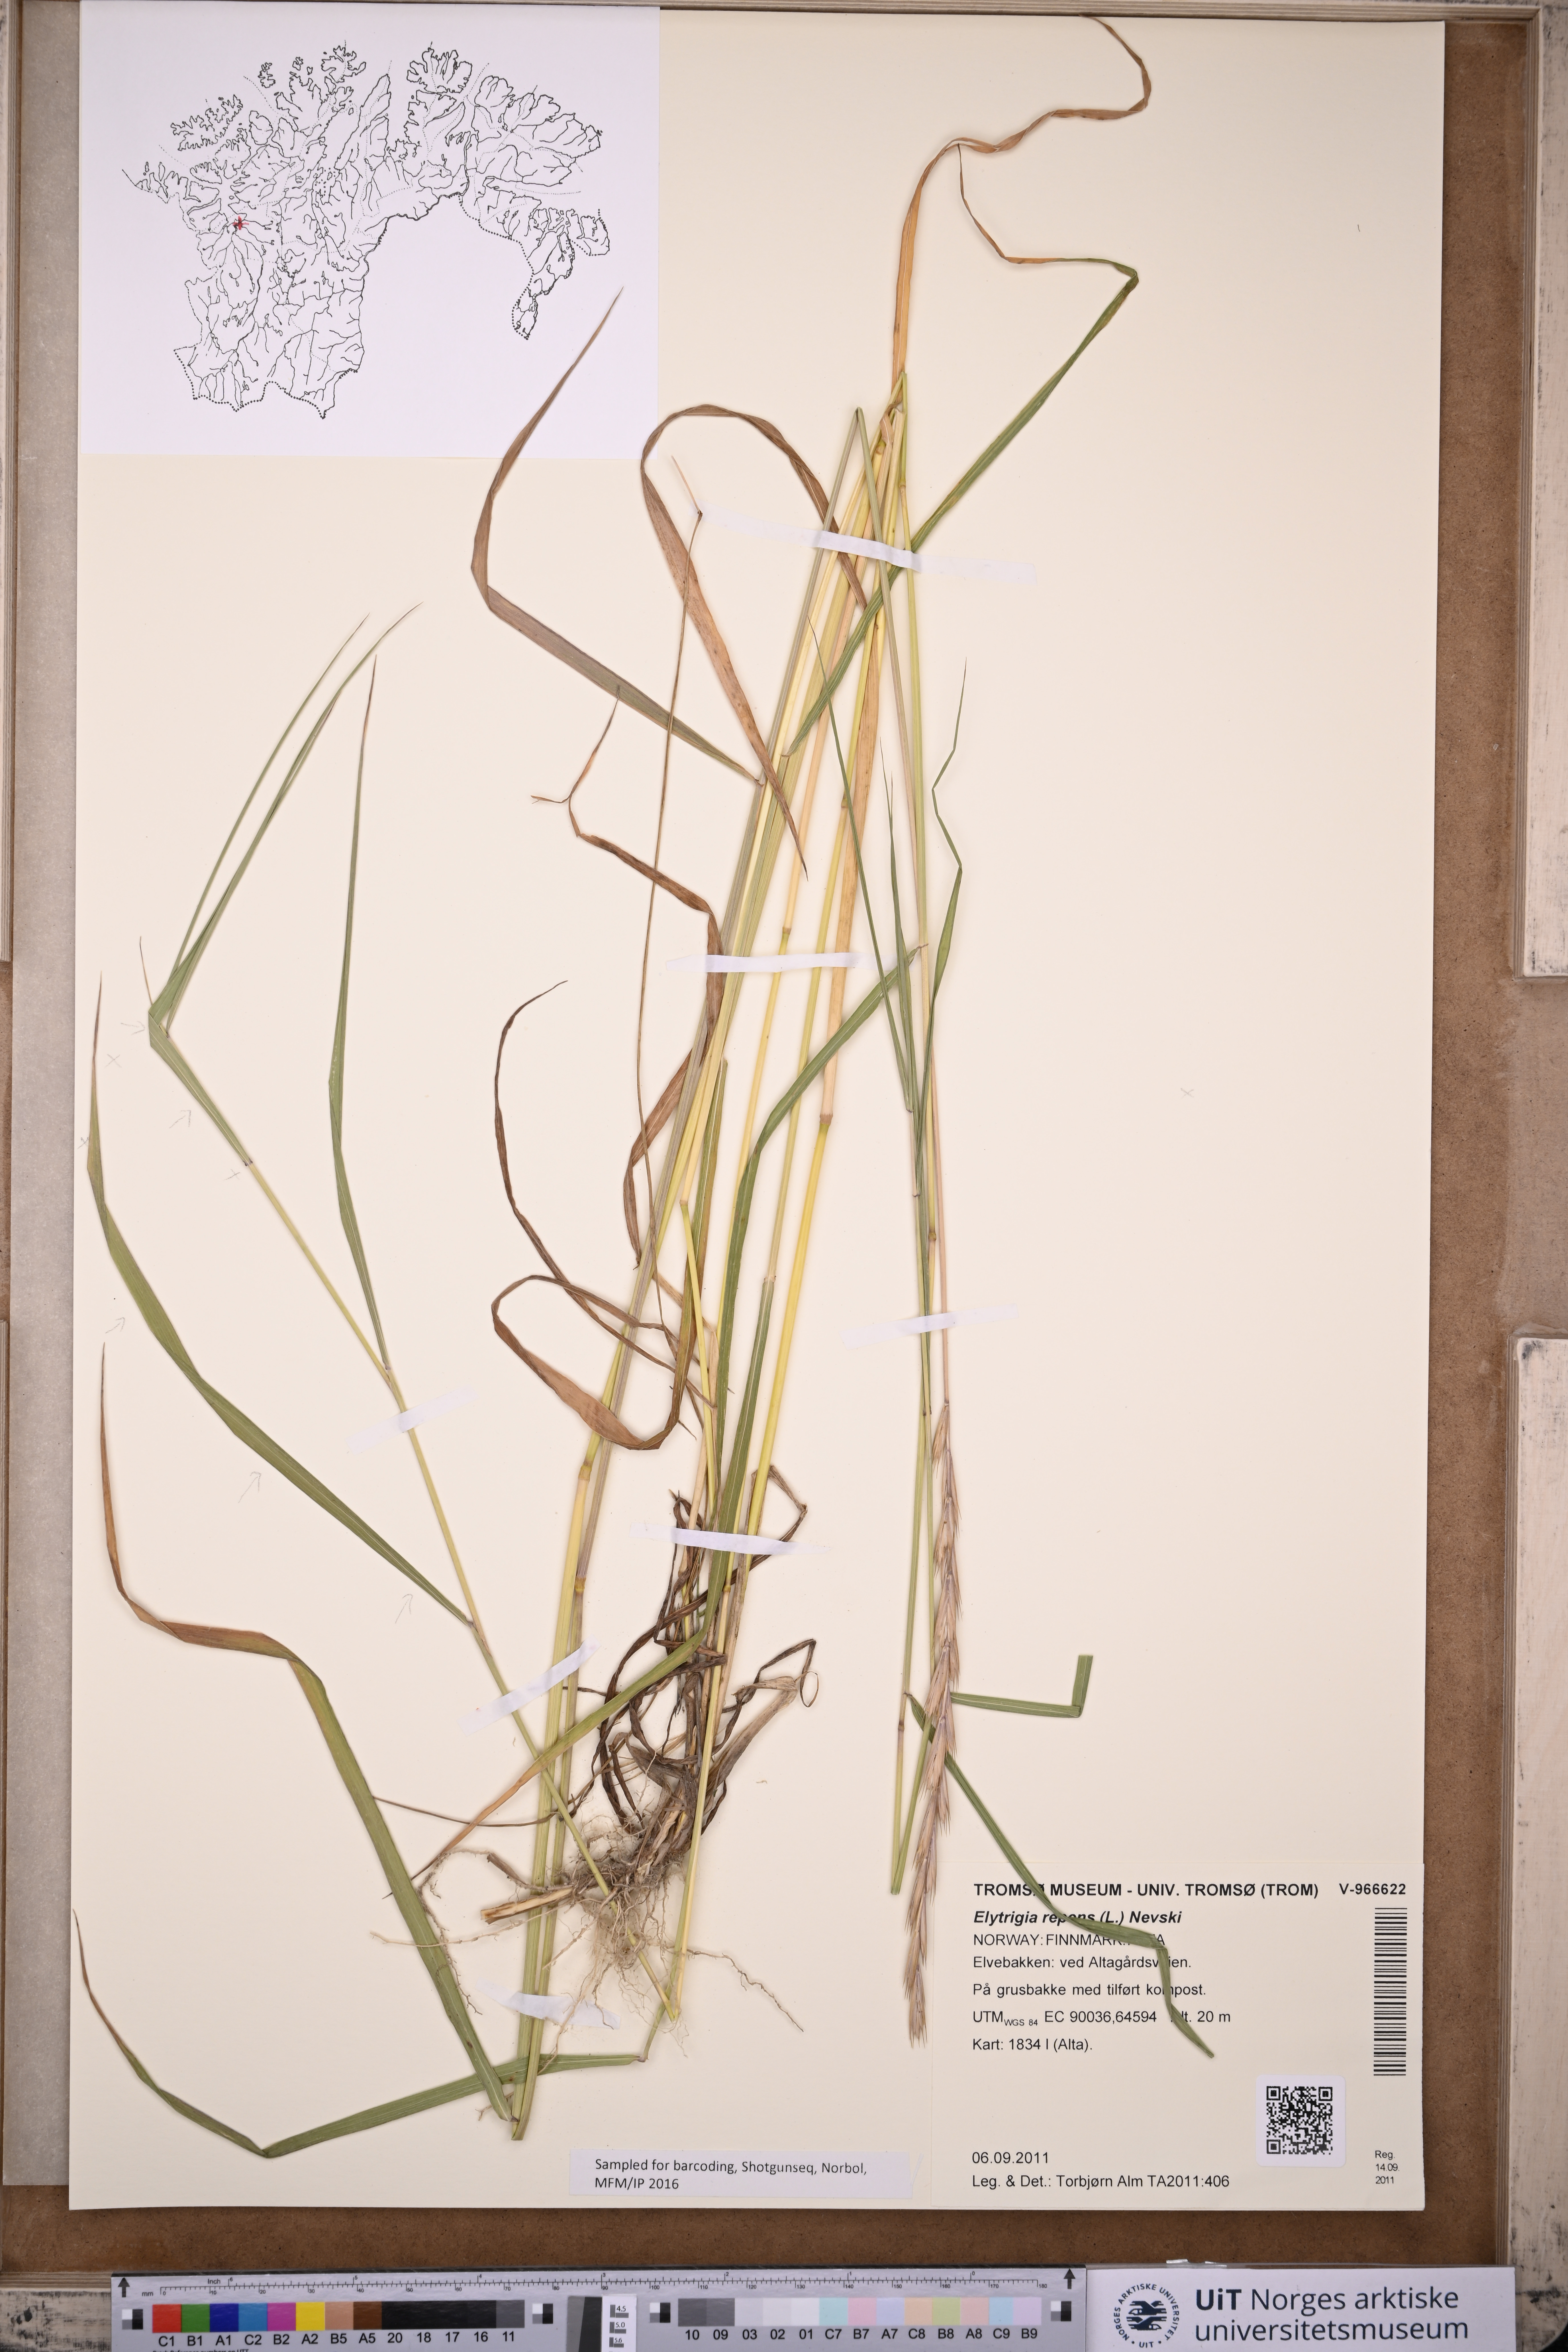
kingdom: Plantae
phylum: Tracheophyta
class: Liliopsida
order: Poales
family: Poaceae
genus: Elymus
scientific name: Elymus repens
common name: Quackgrass
